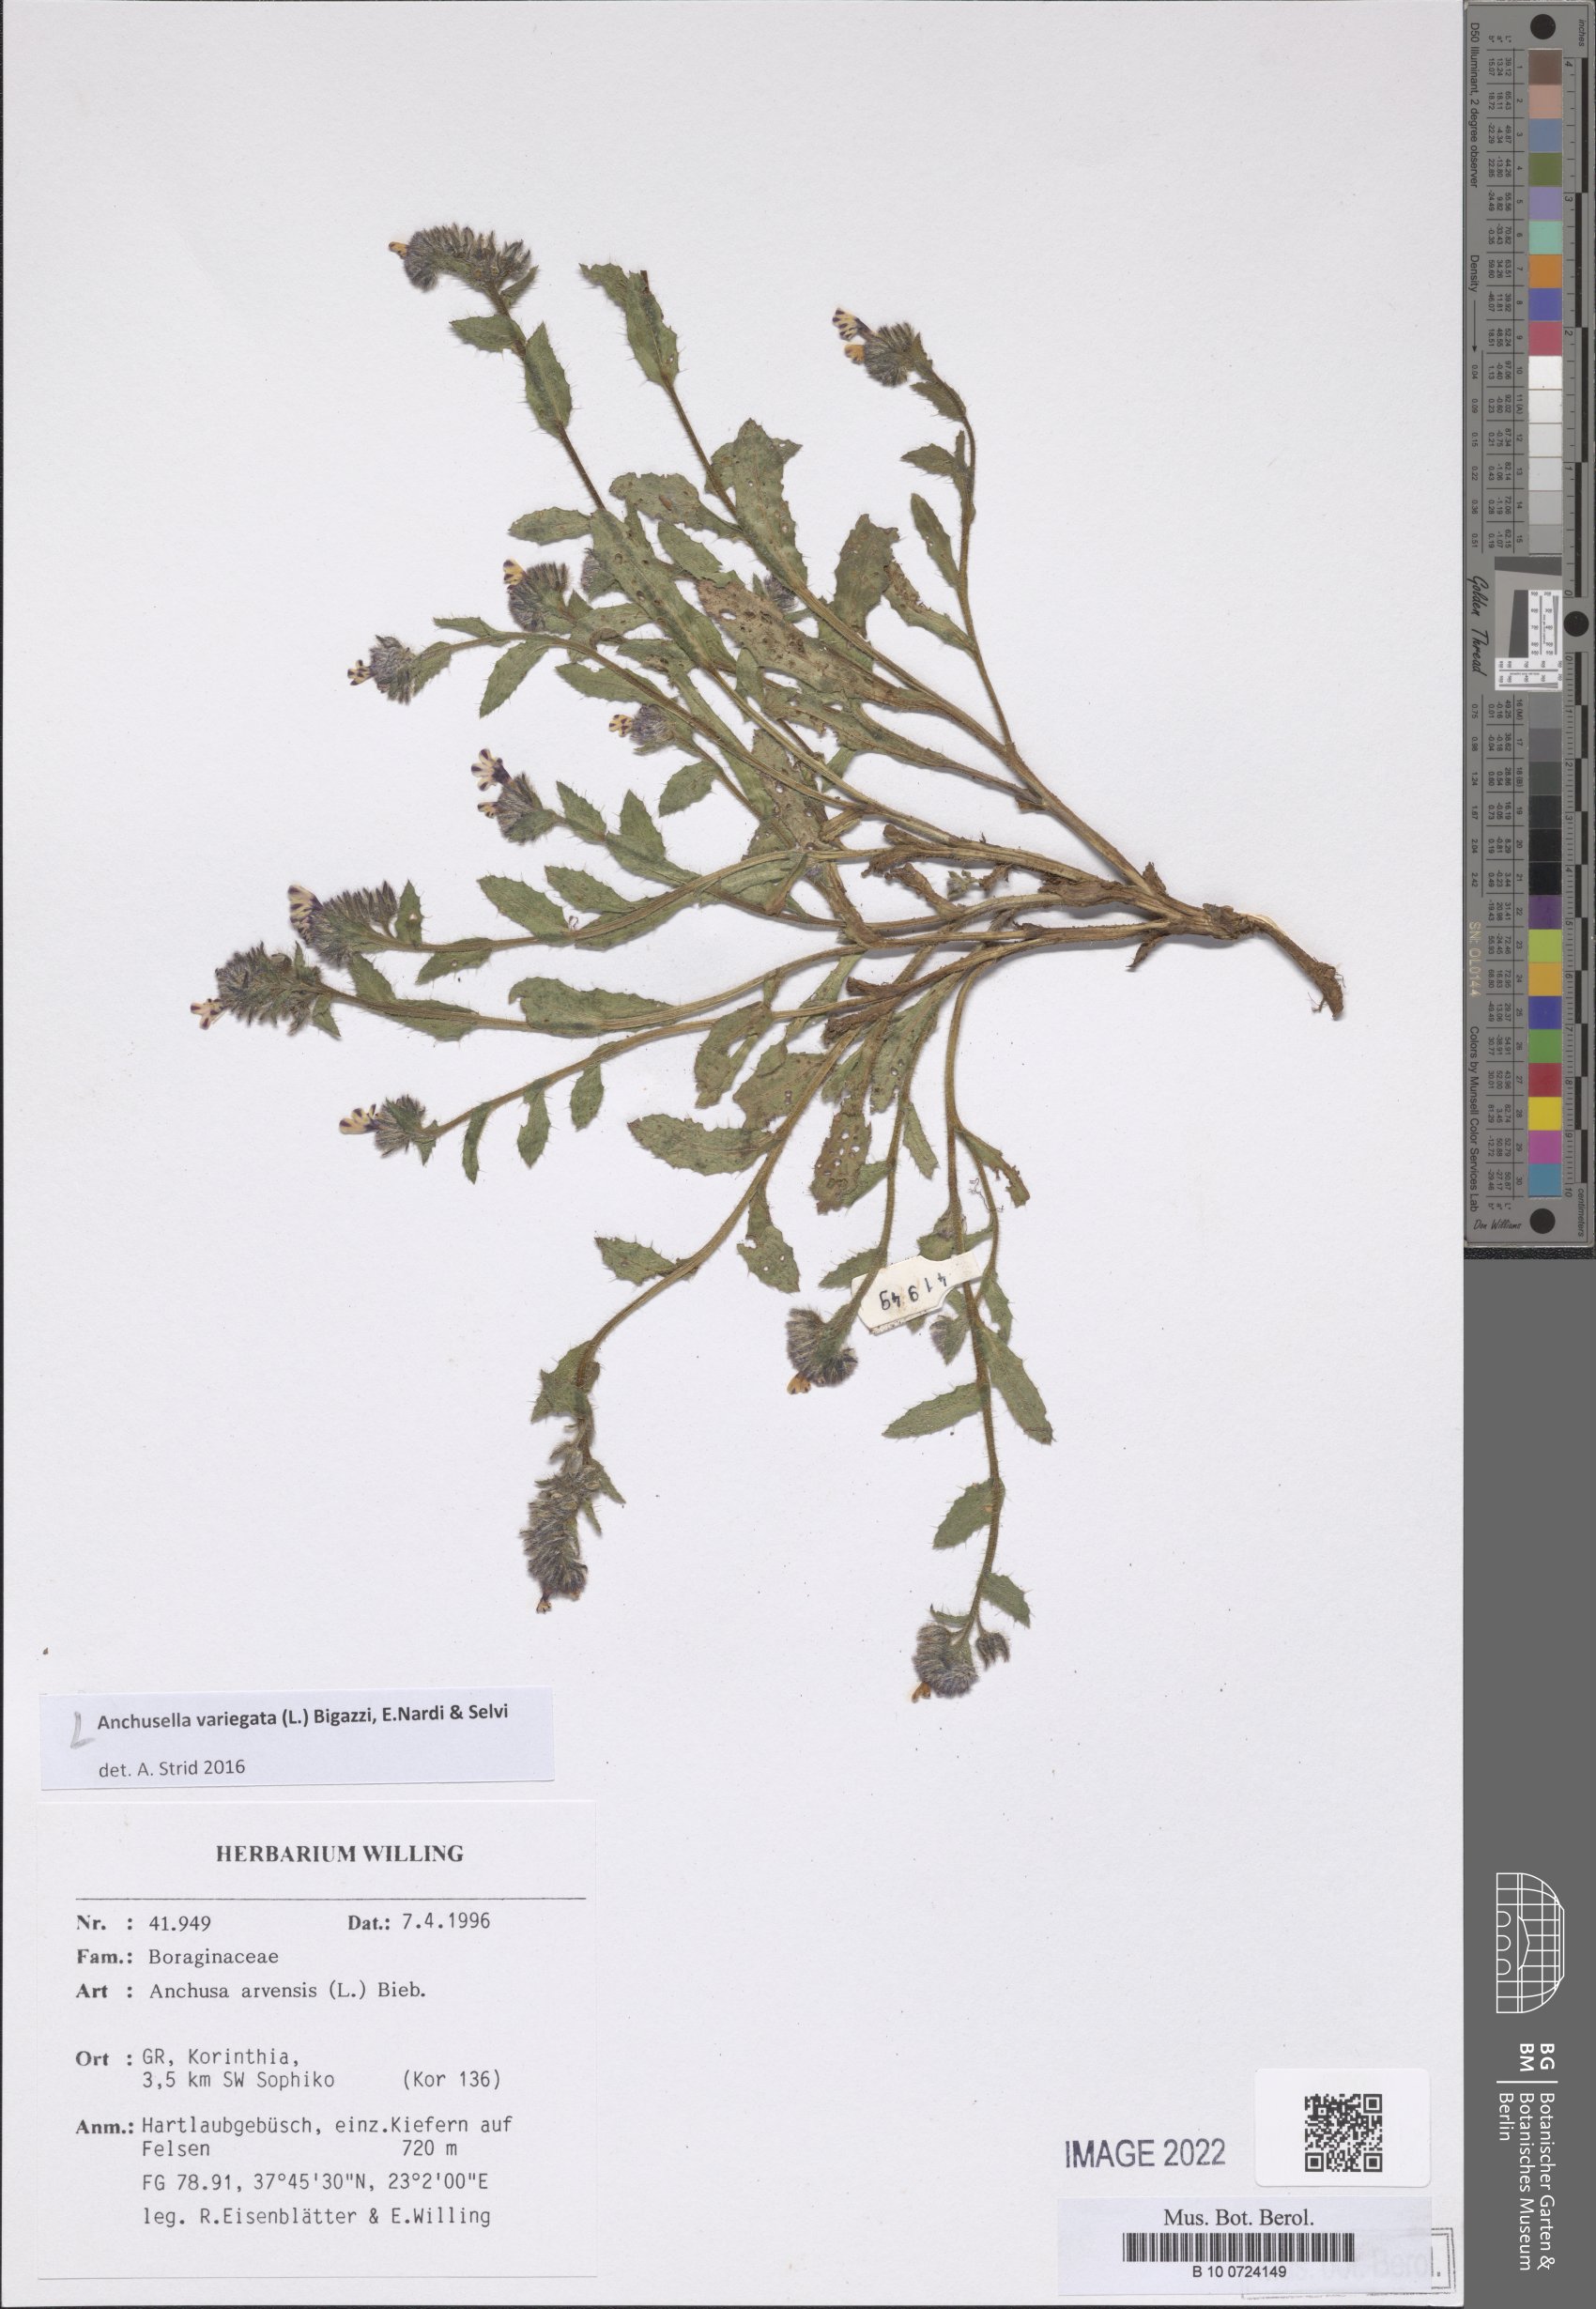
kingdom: Plantae
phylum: Tracheophyta
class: Magnoliopsida
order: Boraginales
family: Boraginaceae
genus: Anchusella
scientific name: Anchusella cretica
